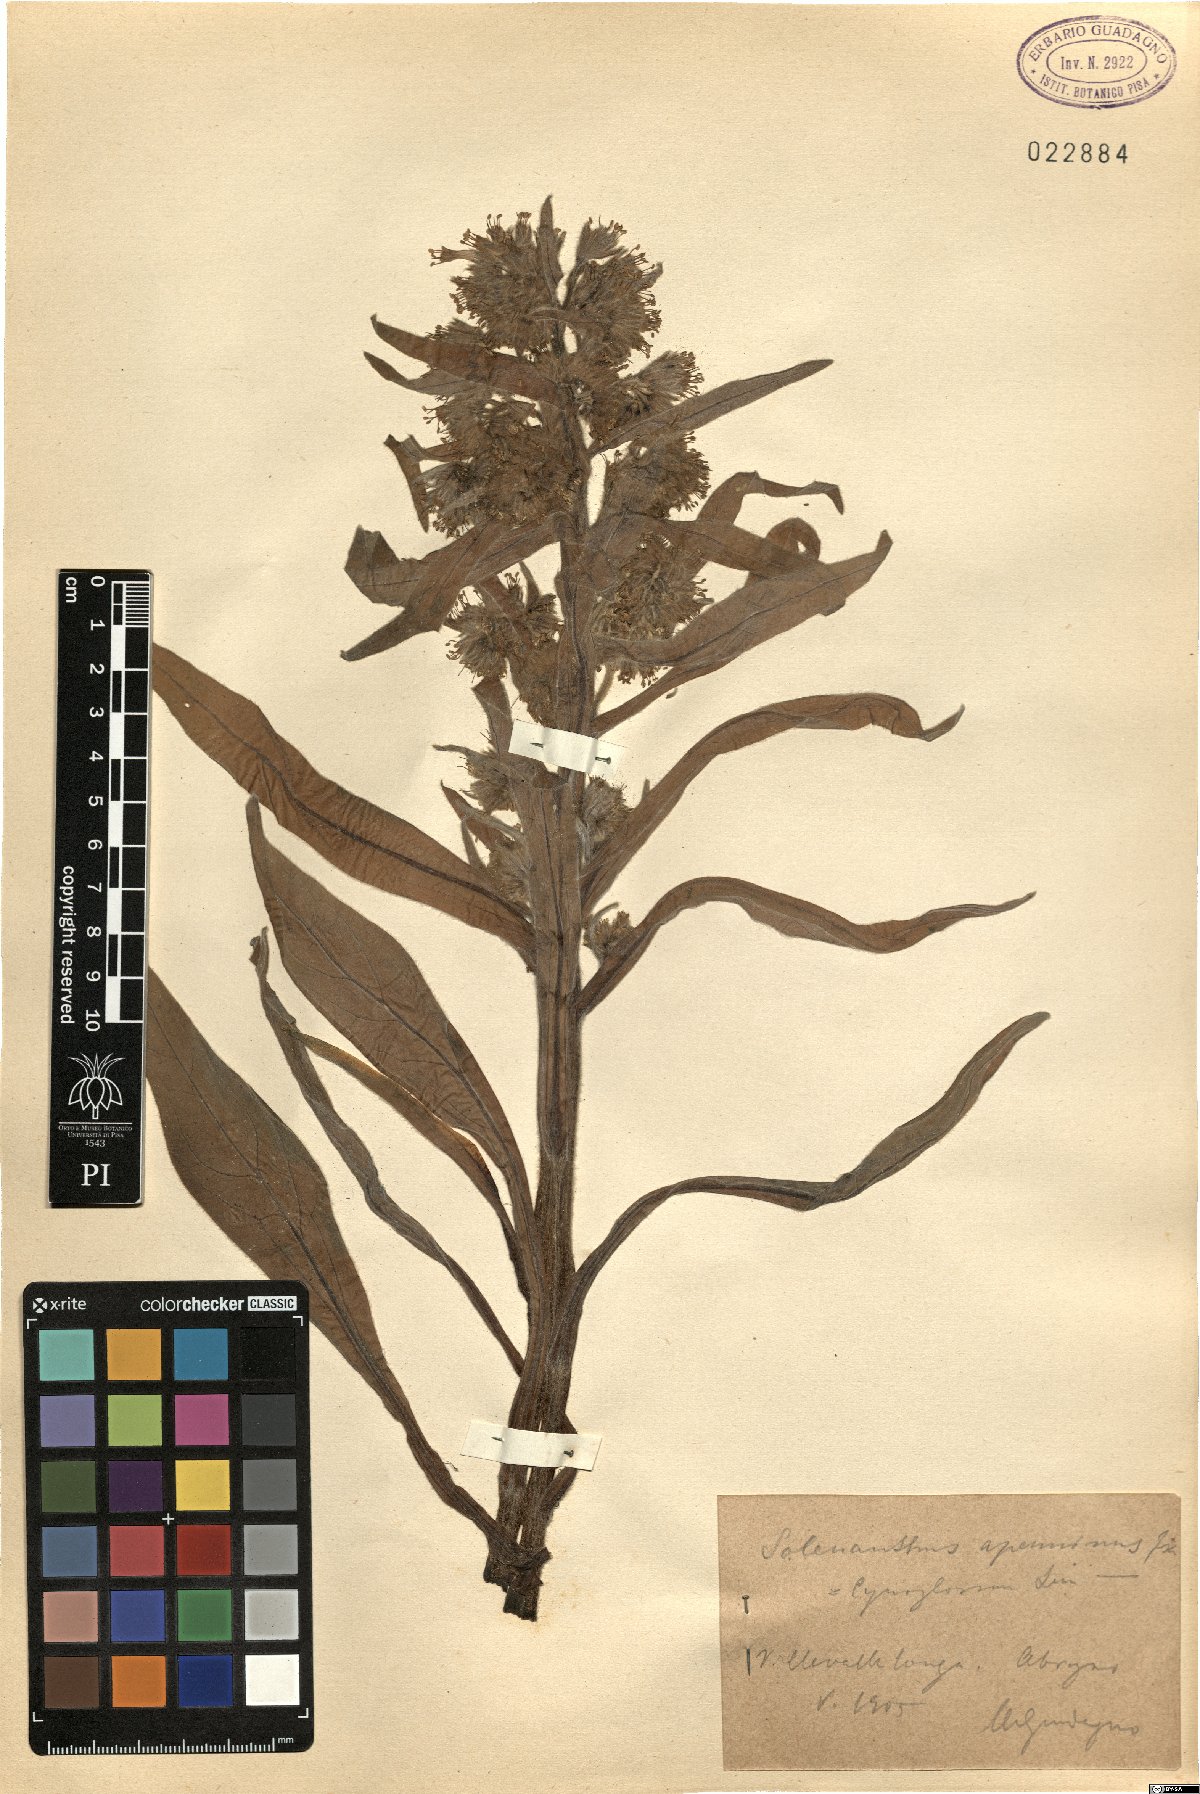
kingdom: Plantae
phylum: Tracheophyta
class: Magnoliopsida
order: Boraginales
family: Boraginaceae
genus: Solenanthus
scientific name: Solenanthus apenninus
